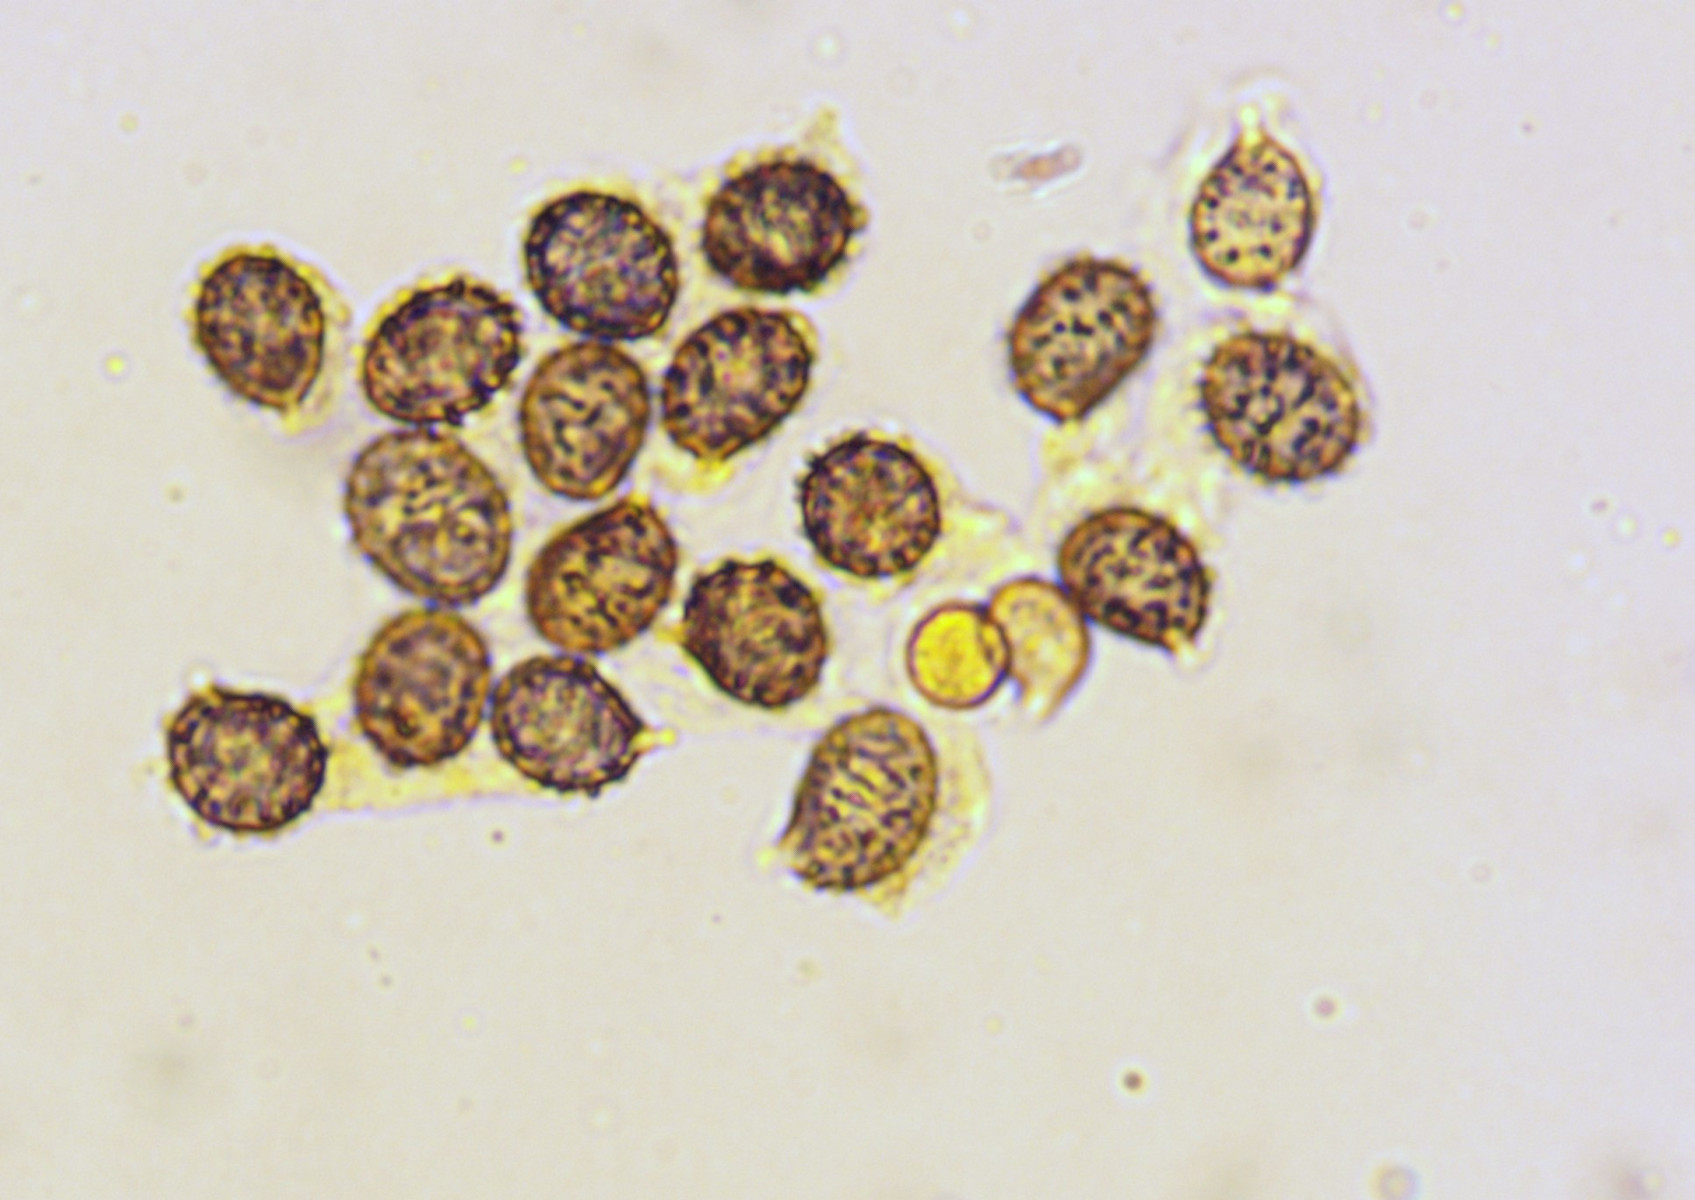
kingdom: Fungi
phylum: Basidiomycota
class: Agaricomycetes
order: Russulales
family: Russulaceae
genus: Russula
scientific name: Russula romellii
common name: romells skørhat
